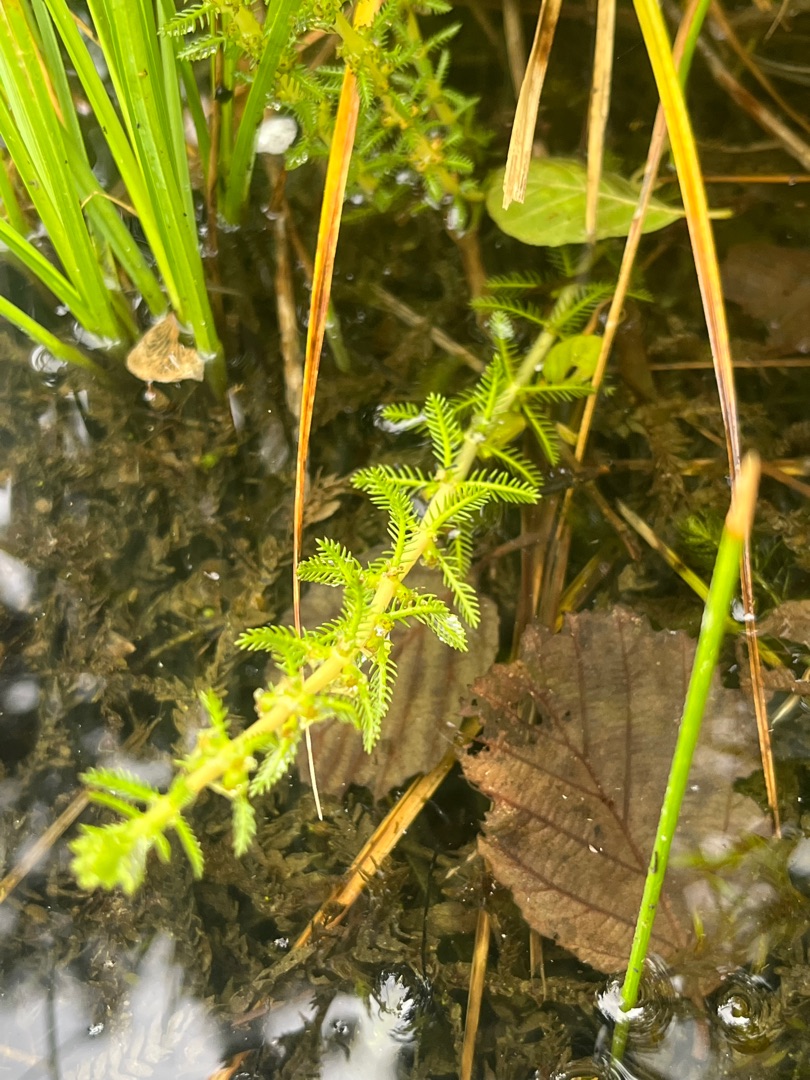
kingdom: Plantae
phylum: Tracheophyta
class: Magnoliopsida
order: Saxifragales
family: Haloragaceae
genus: Myriophyllum
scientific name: Myriophyllum verticillatum
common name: Krans-tusindblad
